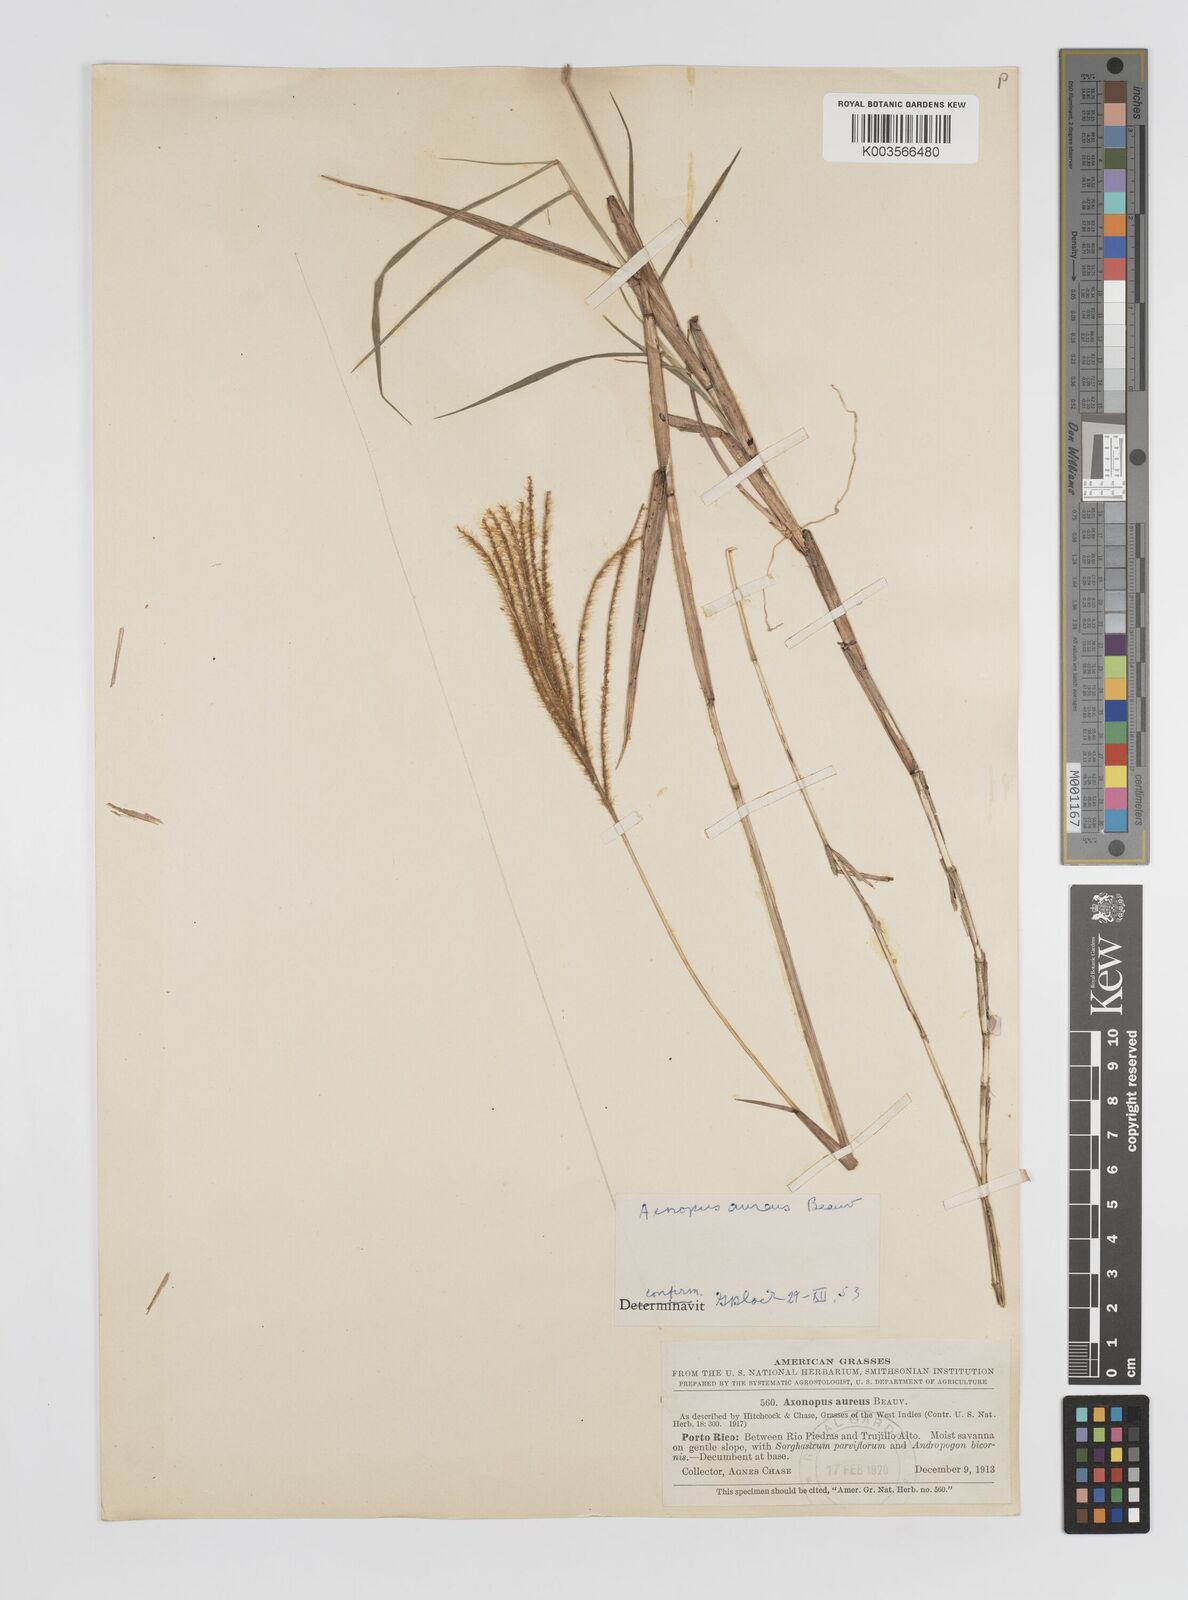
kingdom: Plantae
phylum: Tracheophyta
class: Liliopsida
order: Poales
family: Poaceae
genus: Axonopus
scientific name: Axonopus aureus
